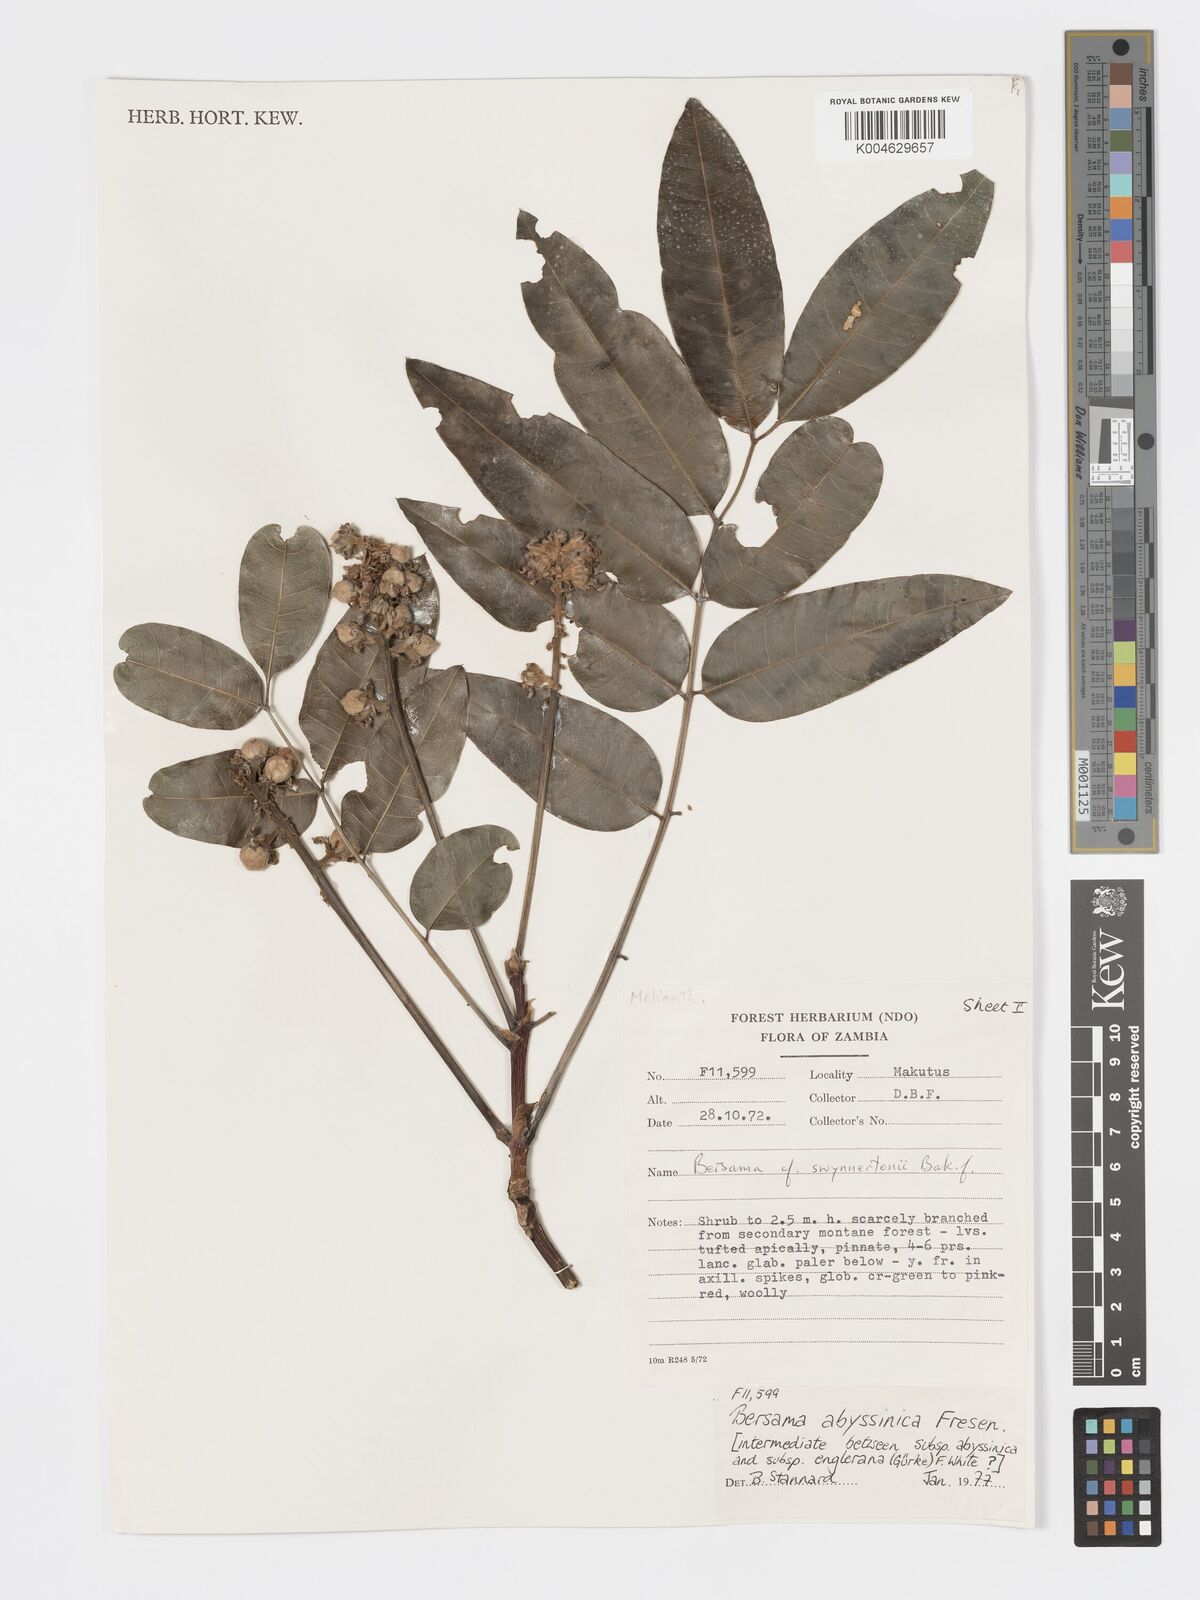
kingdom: Plantae
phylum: Tracheophyta
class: Magnoliopsida
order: Geraniales
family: Francoaceae
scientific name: Francoaceae
